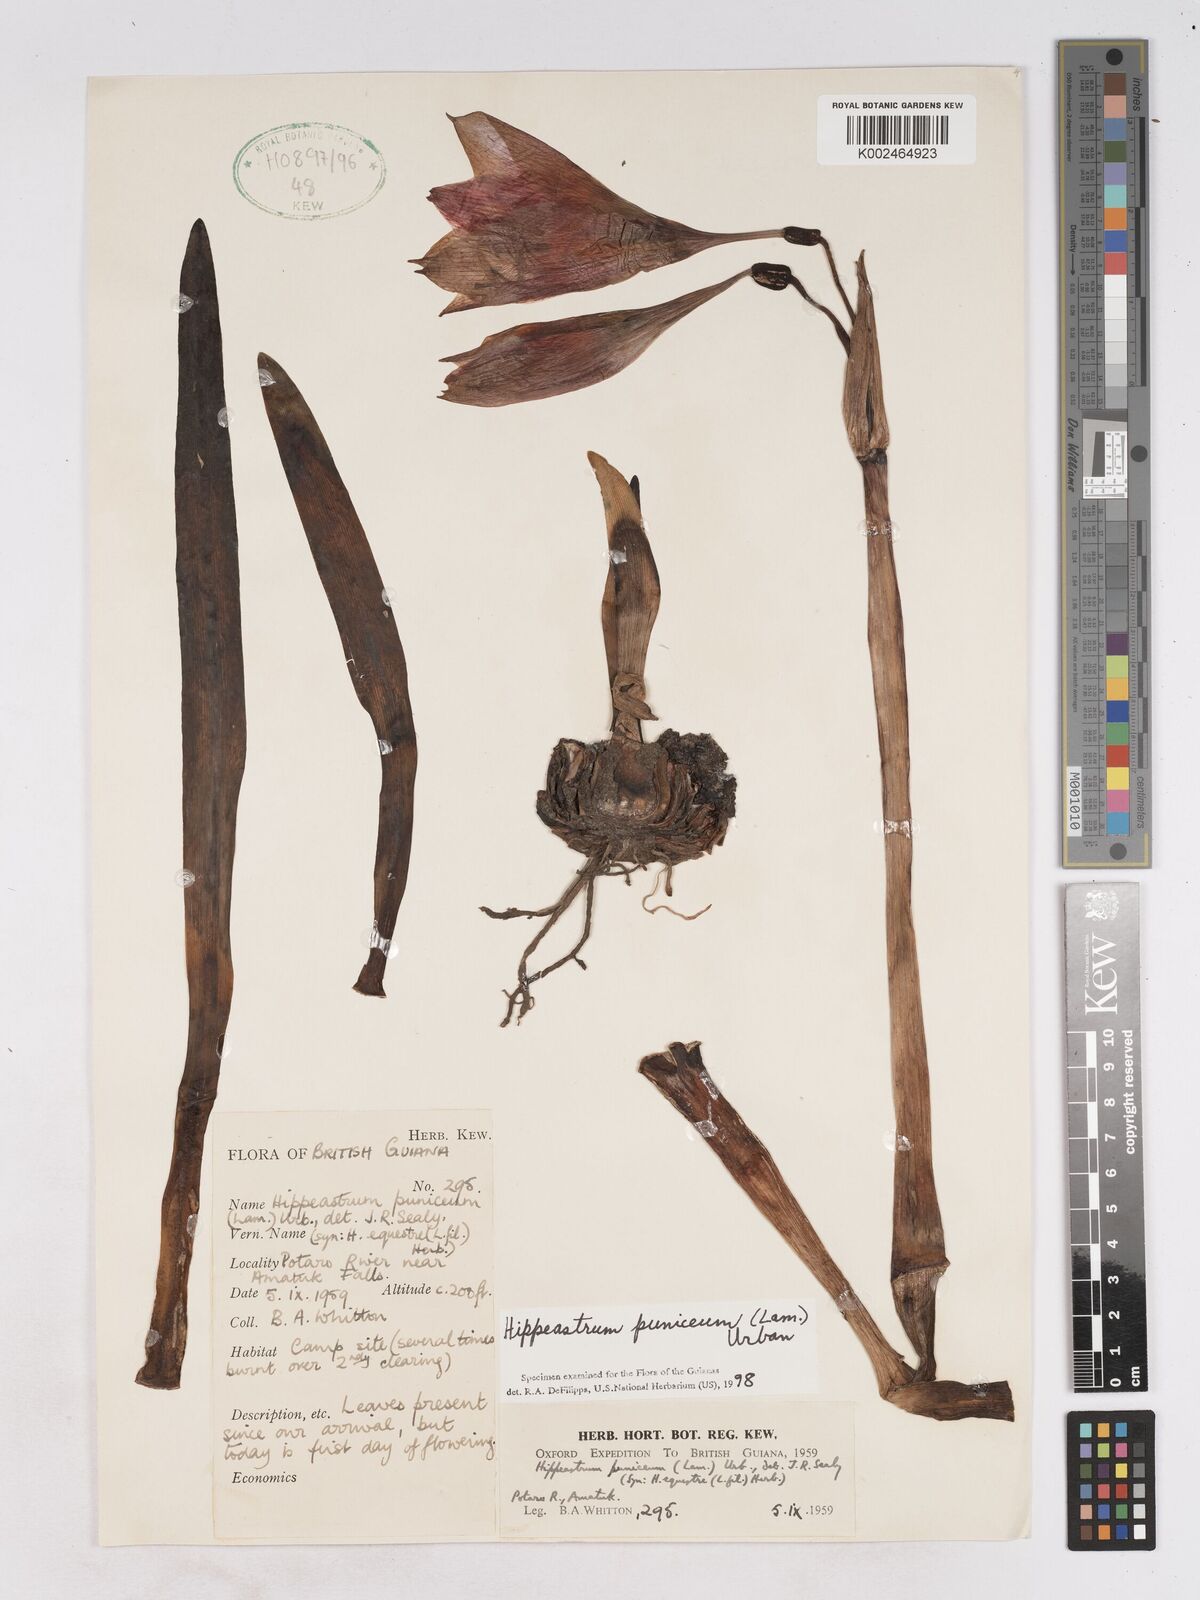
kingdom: Plantae
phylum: Tracheophyta
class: Liliopsida
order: Asparagales
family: Amaryllidaceae
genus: Hippeastrum
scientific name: Hippeastrum puniceum
